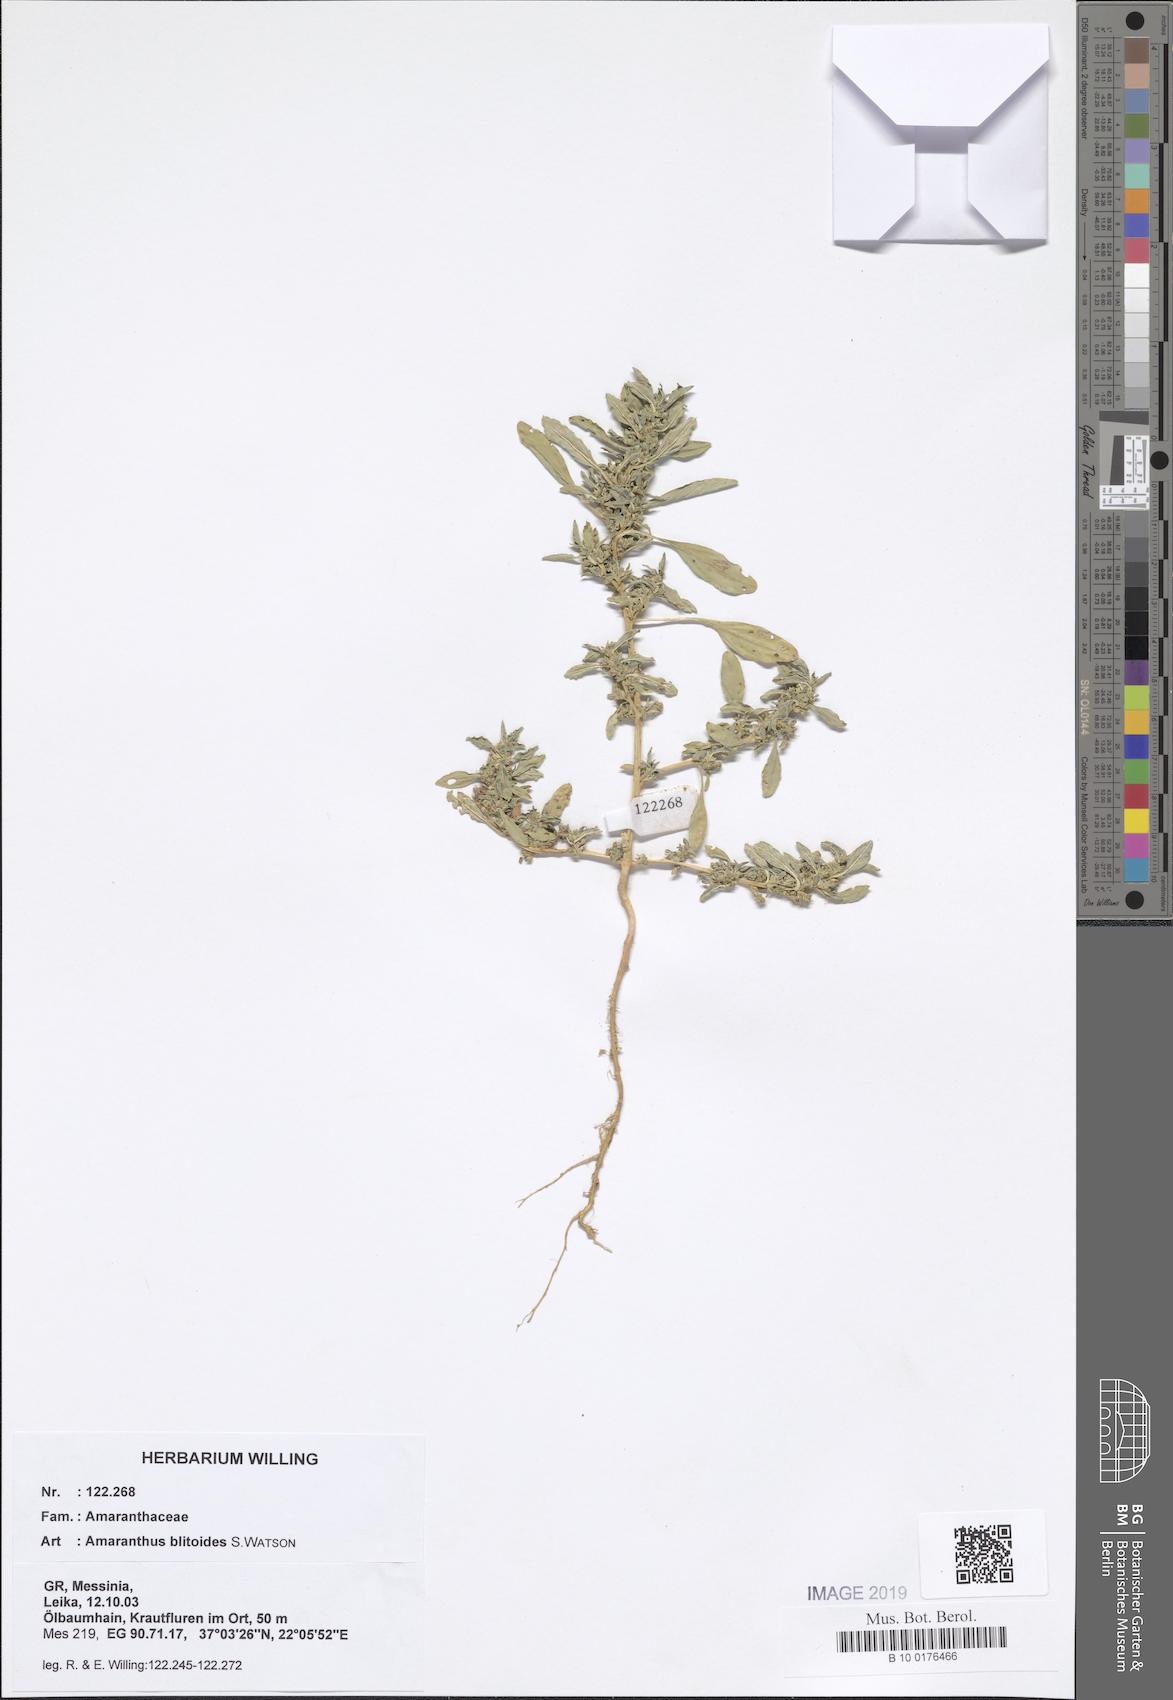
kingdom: Plantae
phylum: Tracheophyta
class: Magnoliopsida
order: Caryophyllales
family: Amaranthaceae
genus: Amaranthus
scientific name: Amaranthus blitoides
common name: Prostrate pigweed
